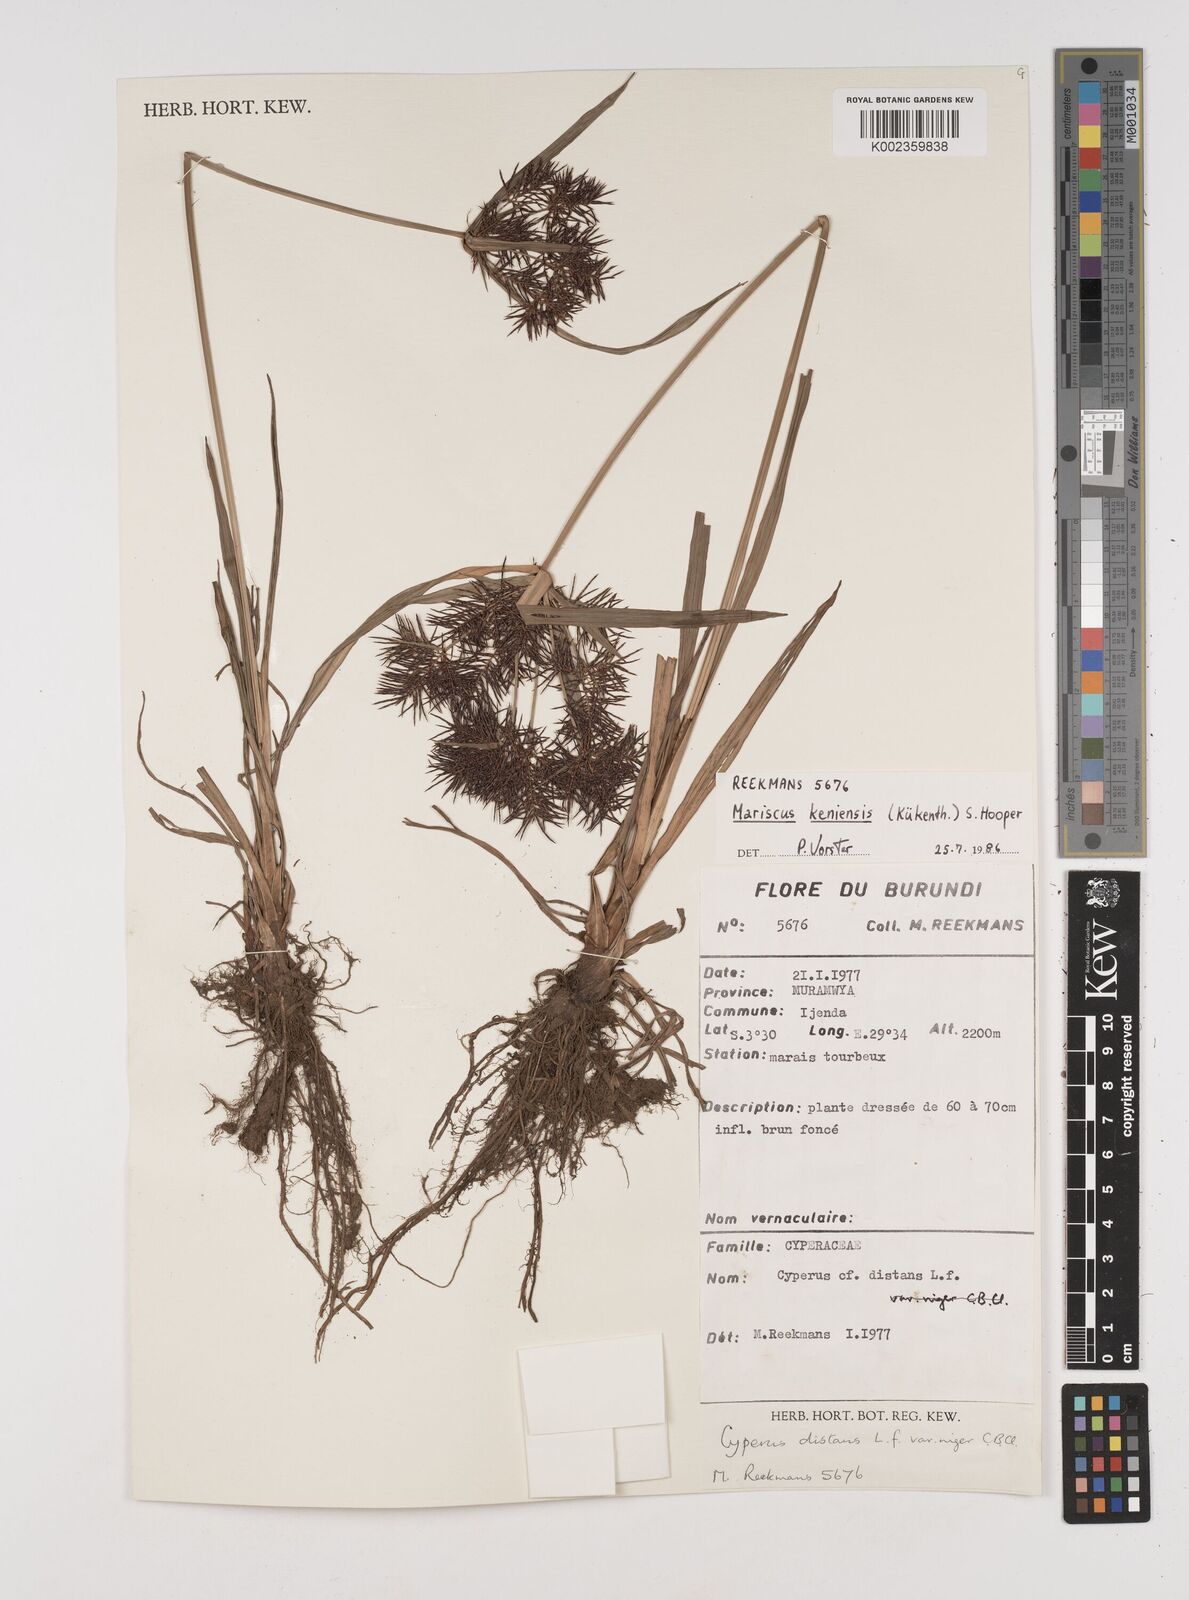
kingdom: Plantae
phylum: Tracheophyta
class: Liliopsida
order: Poales
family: Cyperaceae
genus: Cyperus
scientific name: Cyperus distans
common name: Slender cyperus
